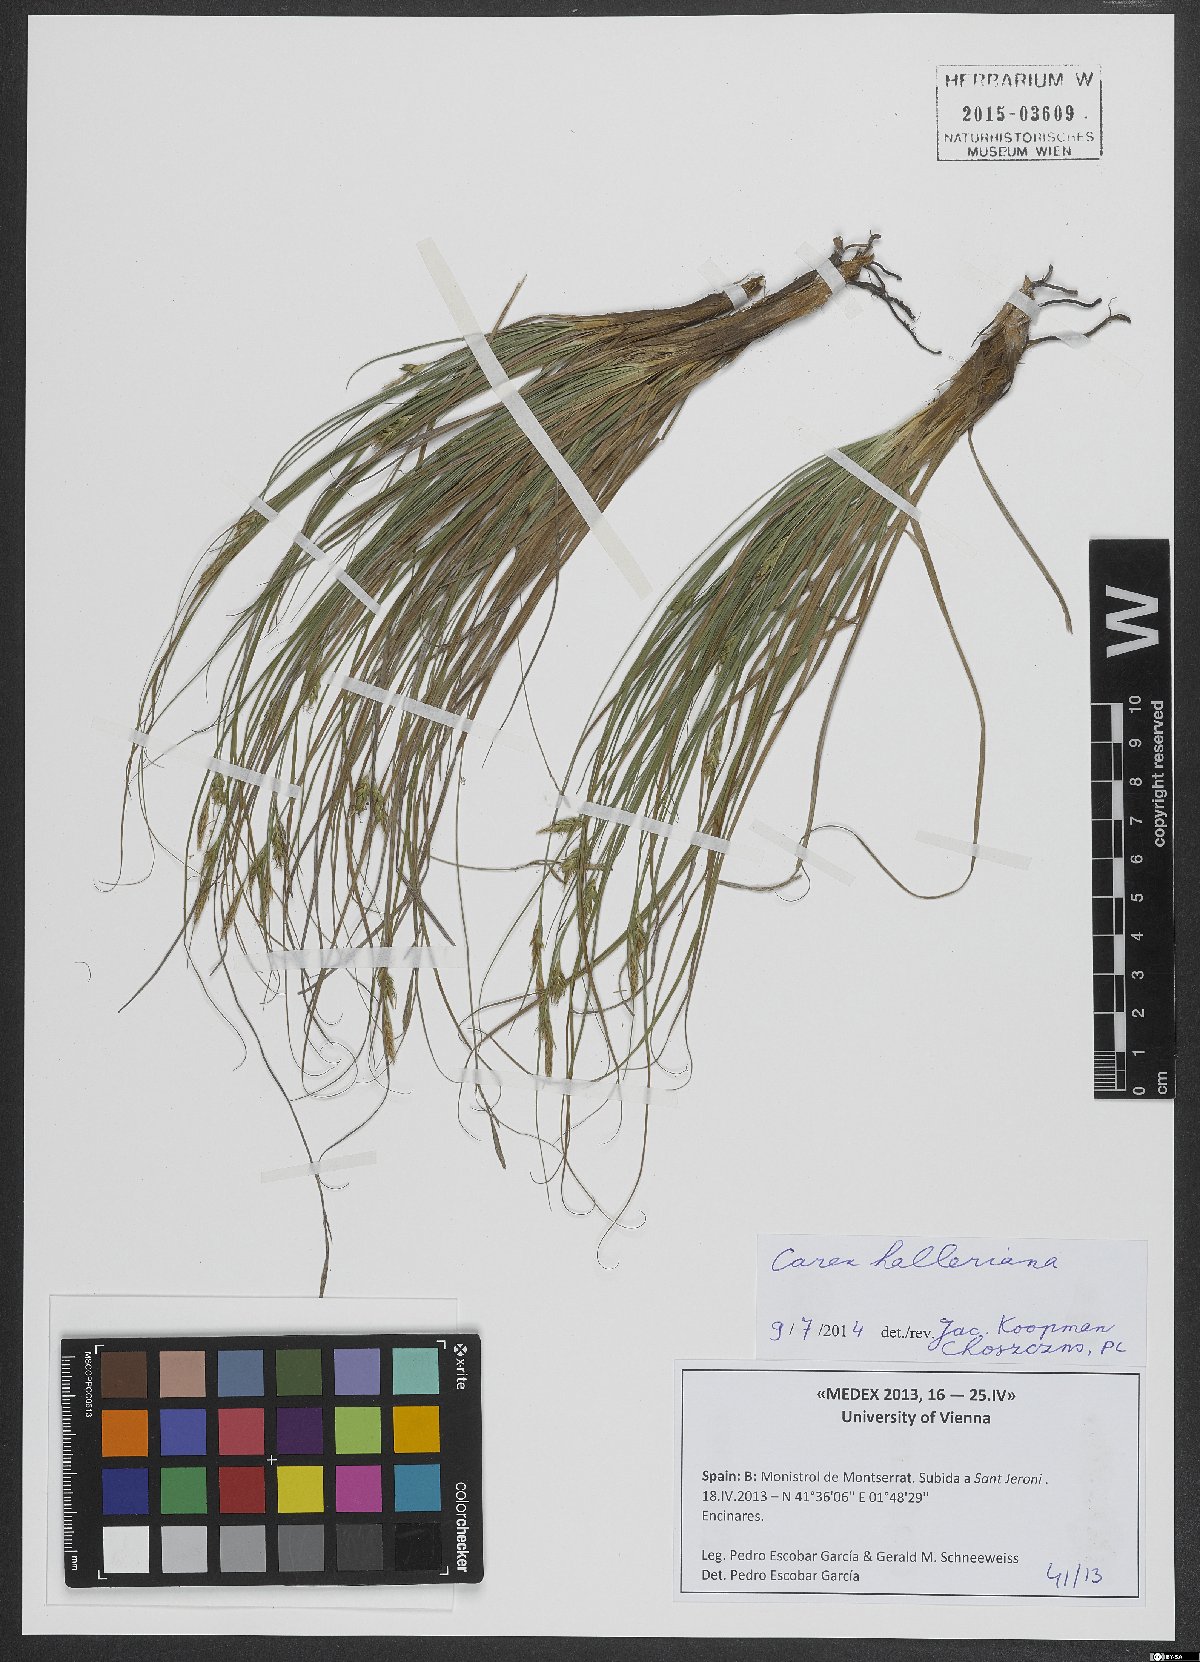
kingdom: Plantae
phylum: Tracheophyta
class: Liliopsida
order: Poales
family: Cyperaceae
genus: Carex
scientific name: Carex halleriana
